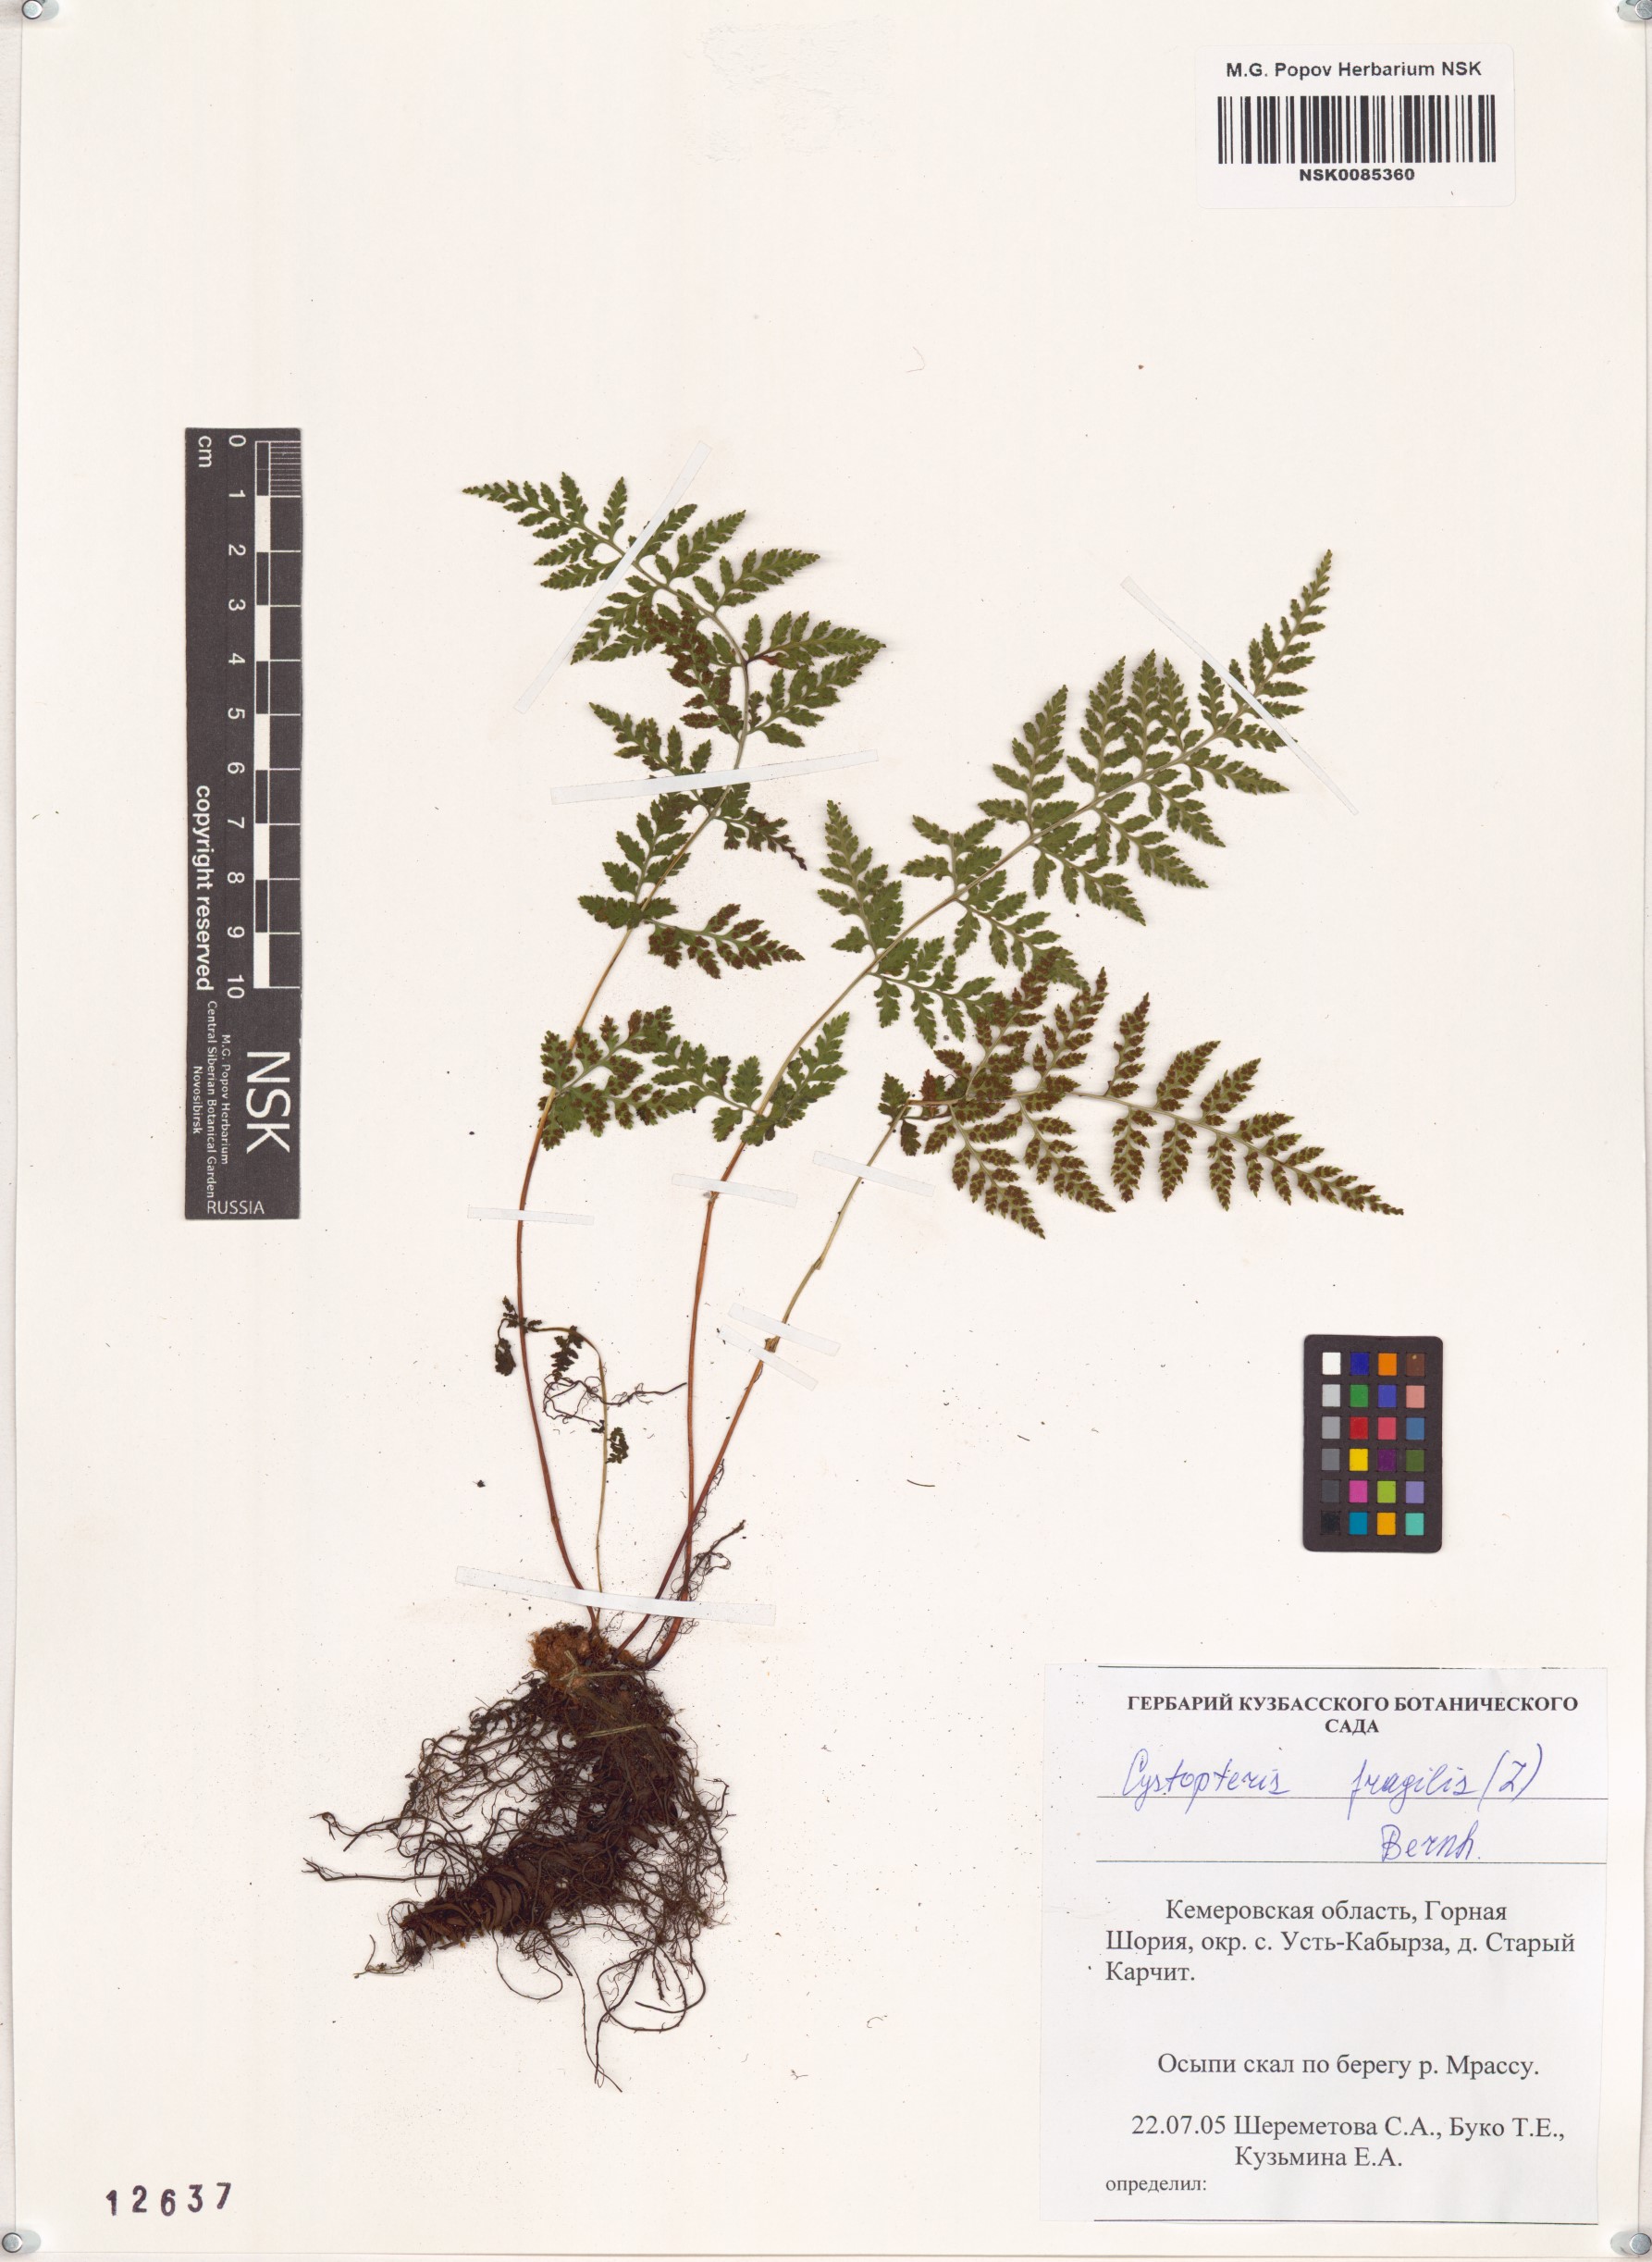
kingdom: Plantae
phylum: Tracheophyta
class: Polypodiopsida
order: Polypodiales
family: Cystopteridaceae
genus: Cystopteris
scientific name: Cystopteris fragilis
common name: Brittle bladder fern
